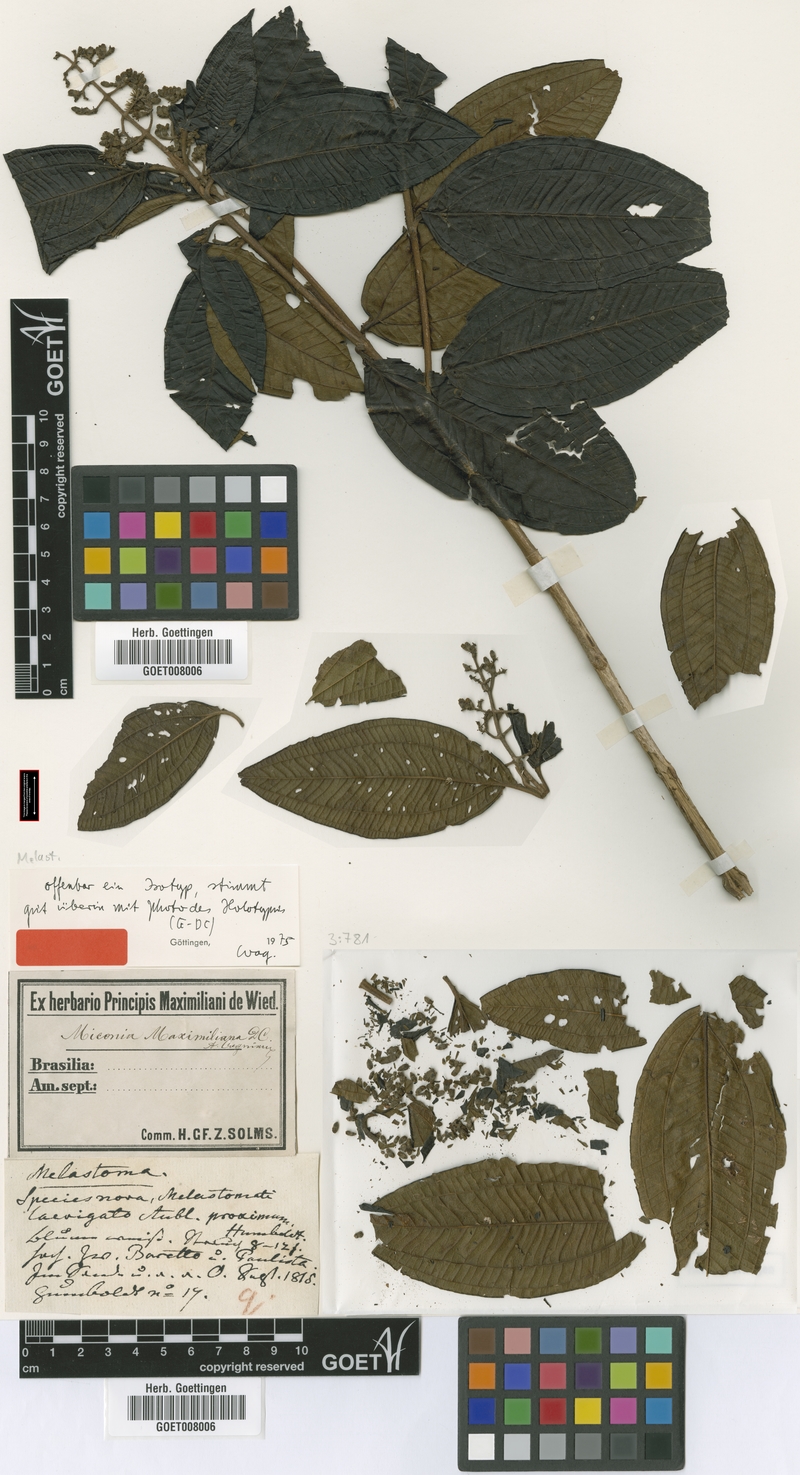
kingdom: Plantae
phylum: Tracheophyta
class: Magnoliopsida
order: Myrtales
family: Melastomataceae
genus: Miconia
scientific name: Miconia maximilianea
